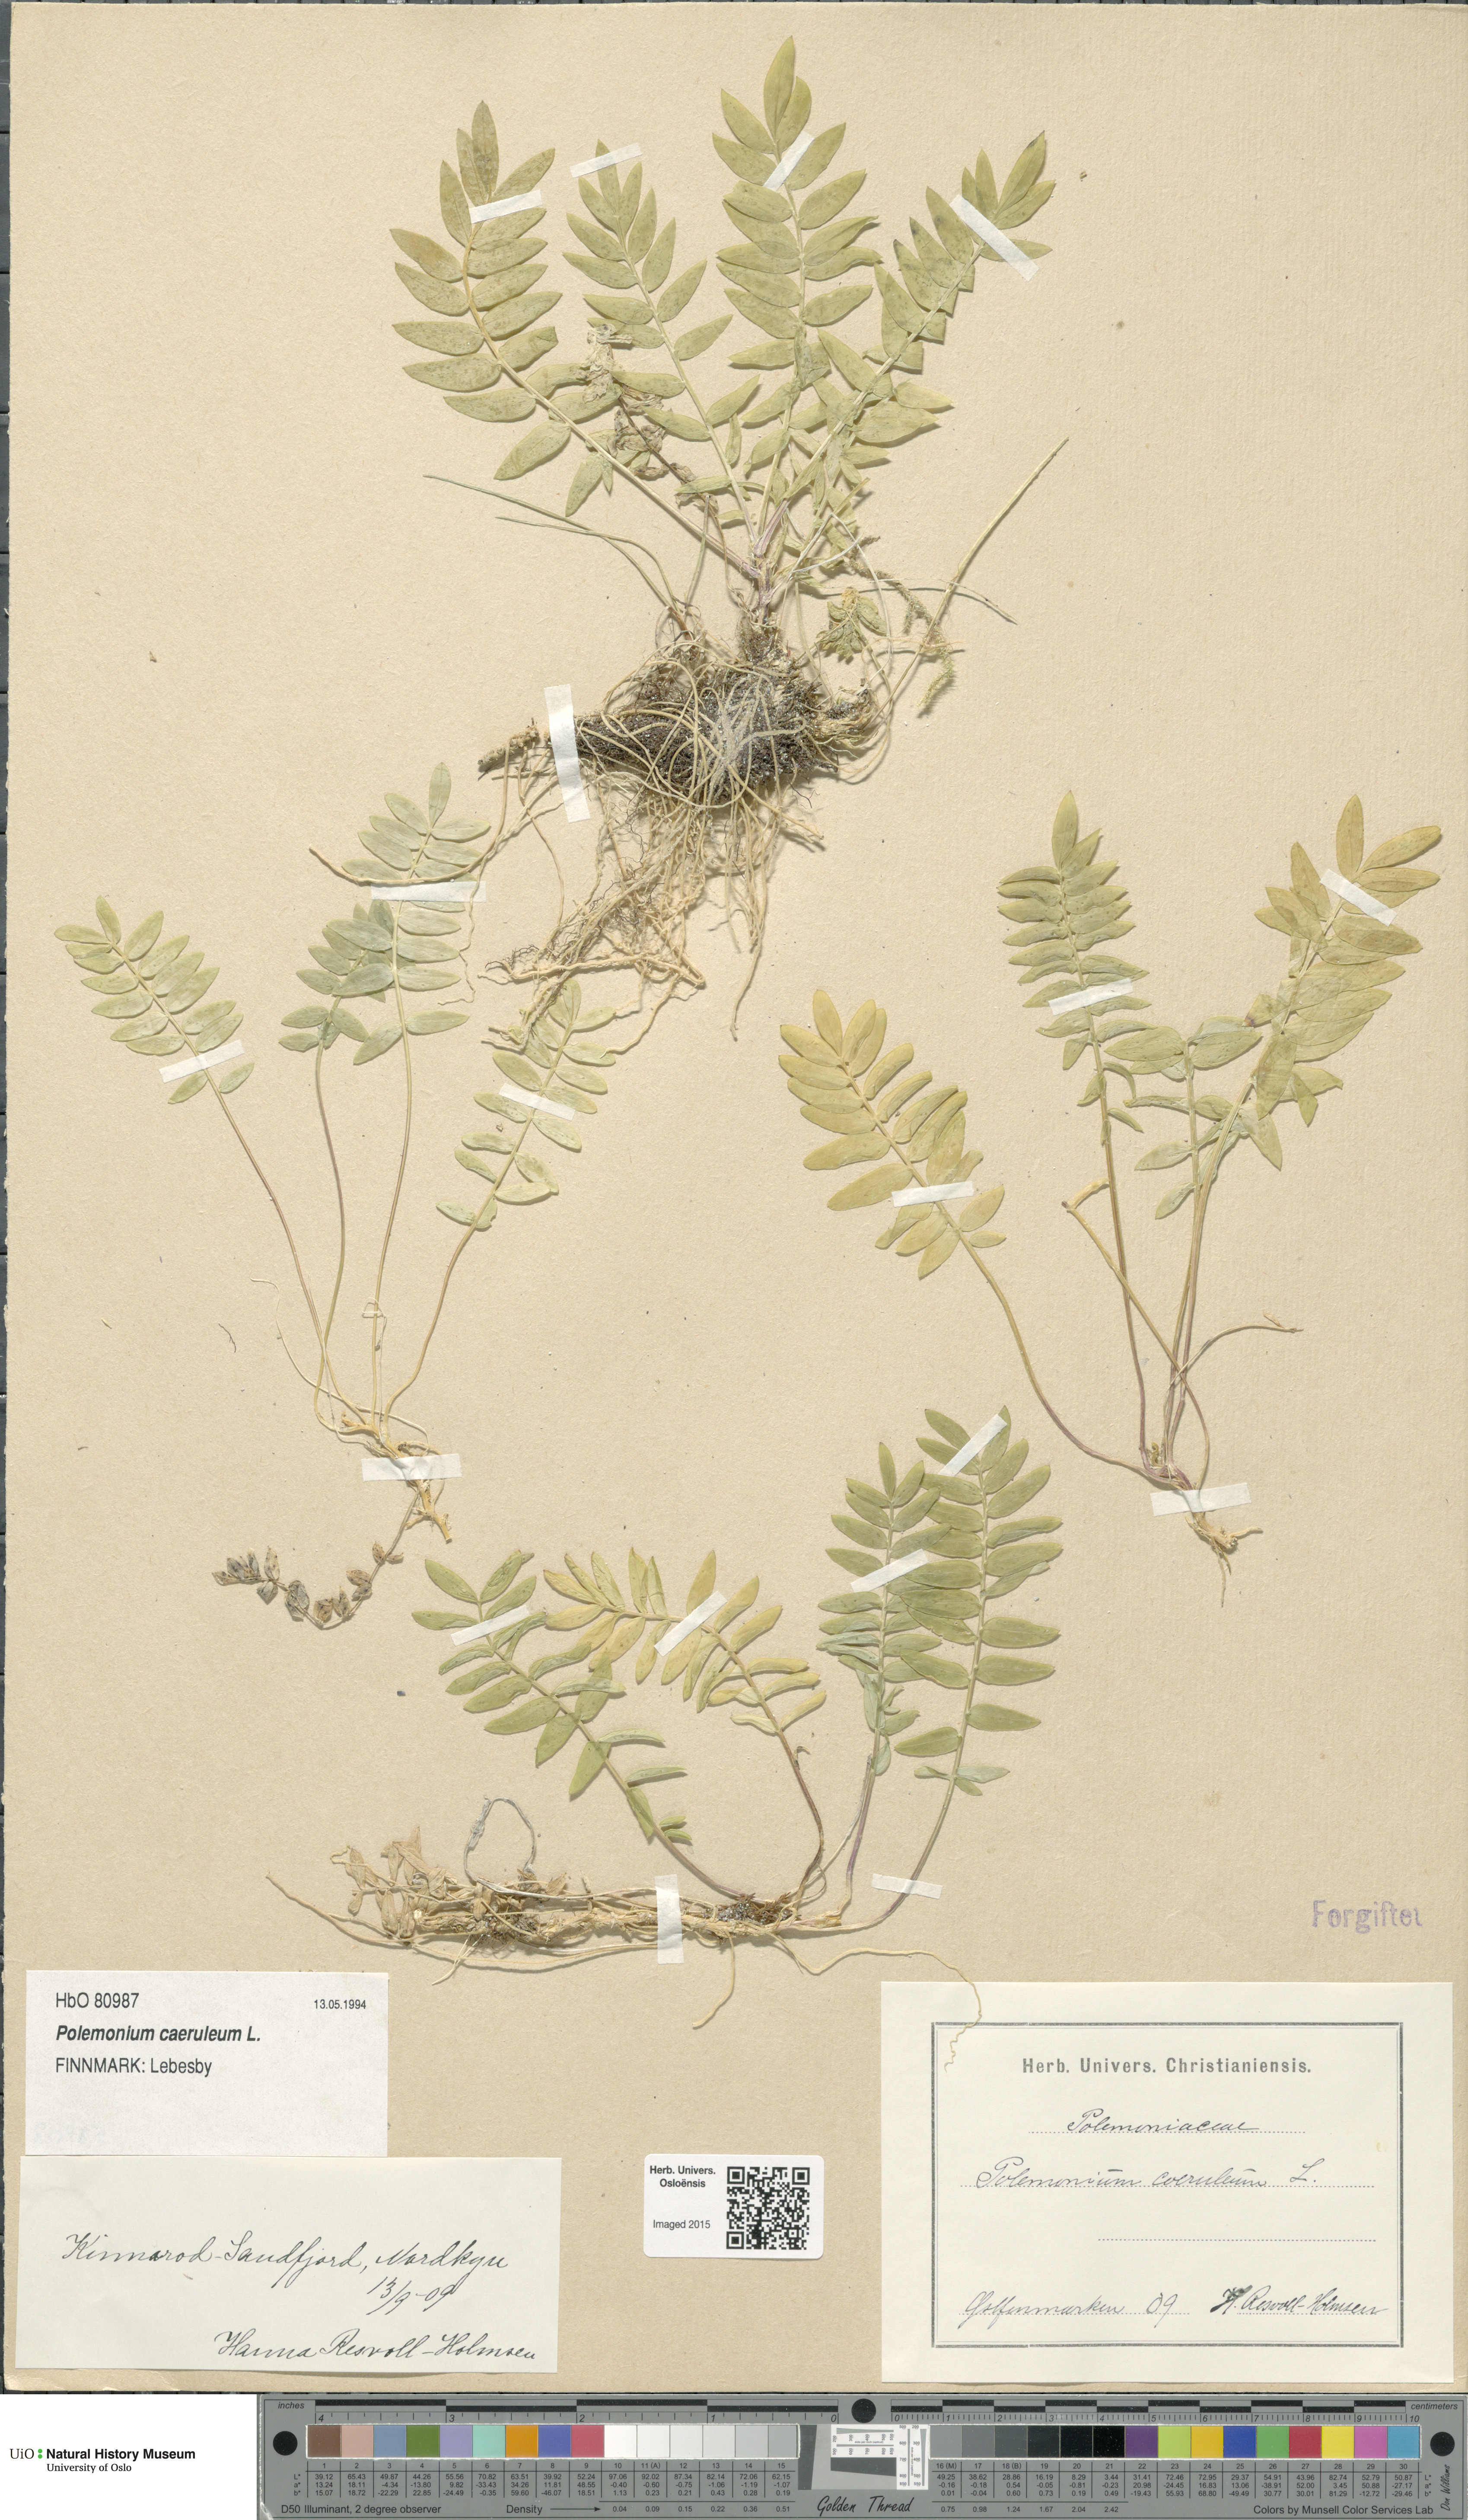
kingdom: Plantae
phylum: Tracheophyta
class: Magnoliopsida
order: Ericales
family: Polemoniaceae
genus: Polemonium
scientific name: Polemonium caeruleum
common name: Jacob's-ladder
